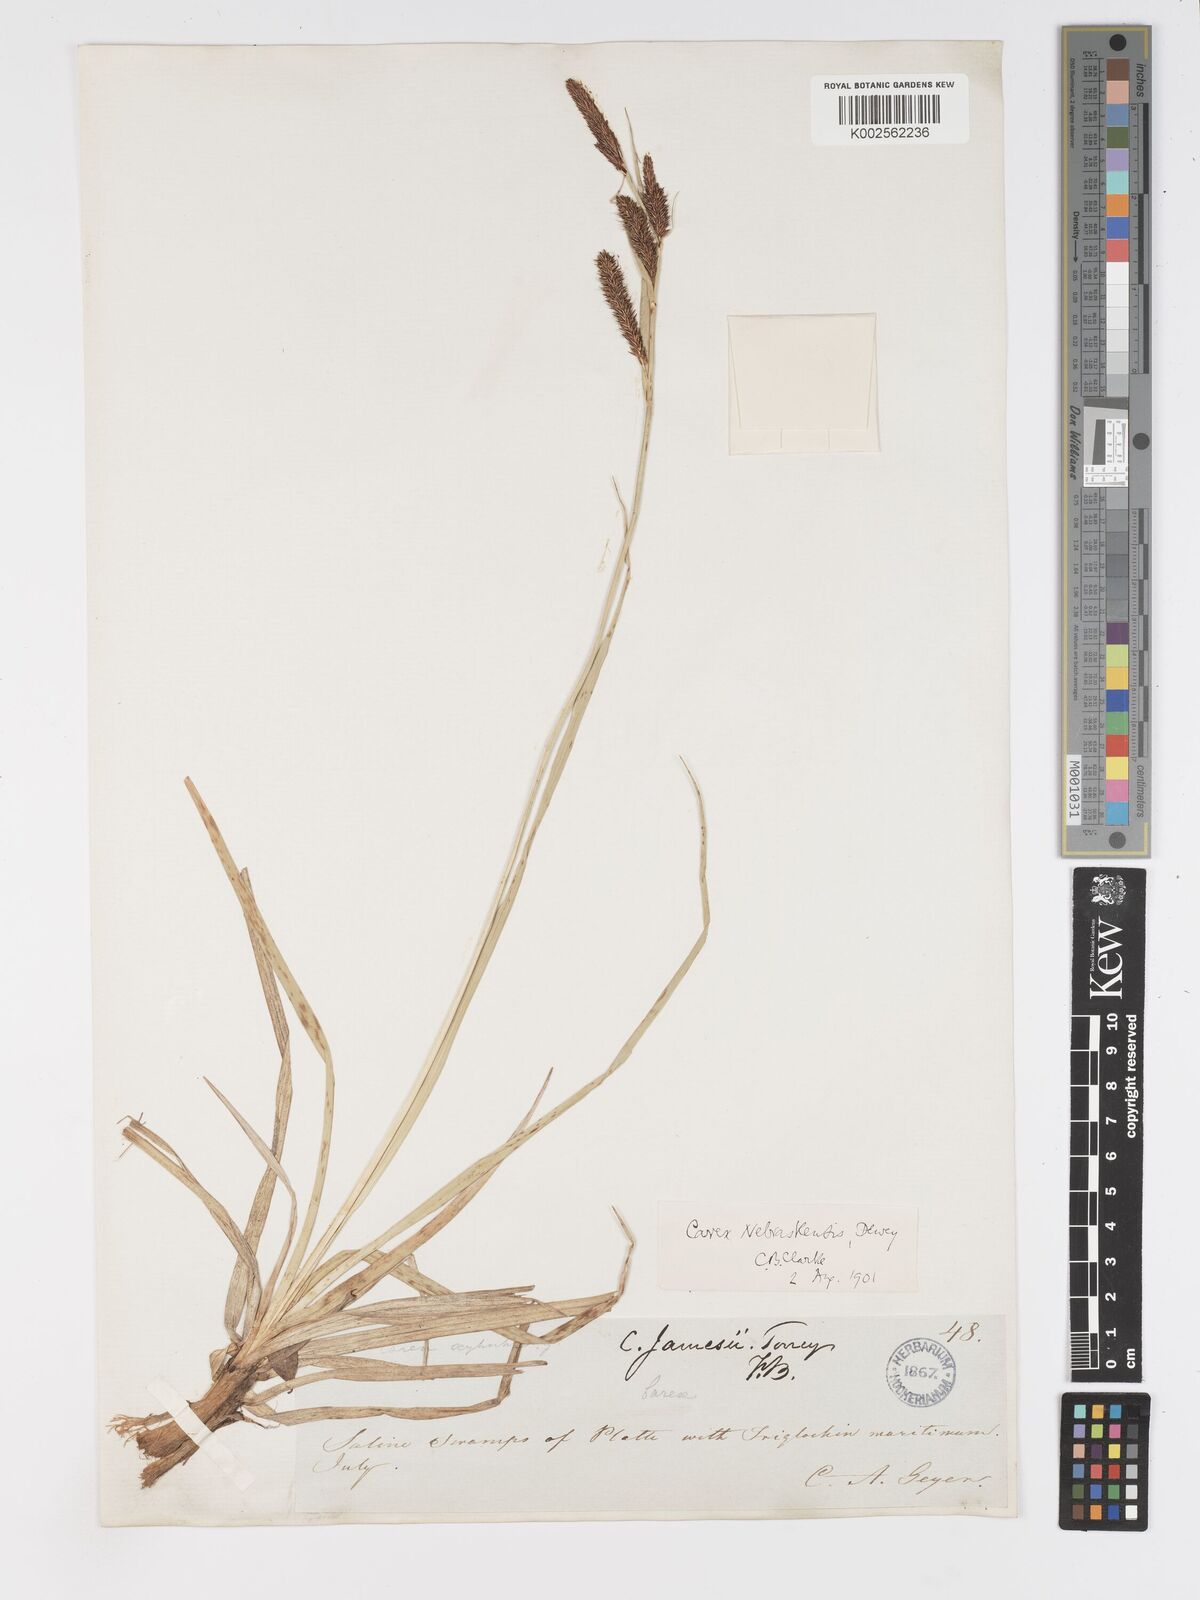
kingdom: Plantae
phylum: Tracheophyta
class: Liliopsida
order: Poales
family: Cyperaceae
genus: Carex
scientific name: Carex nebrascensis
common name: Nebraska sedge
